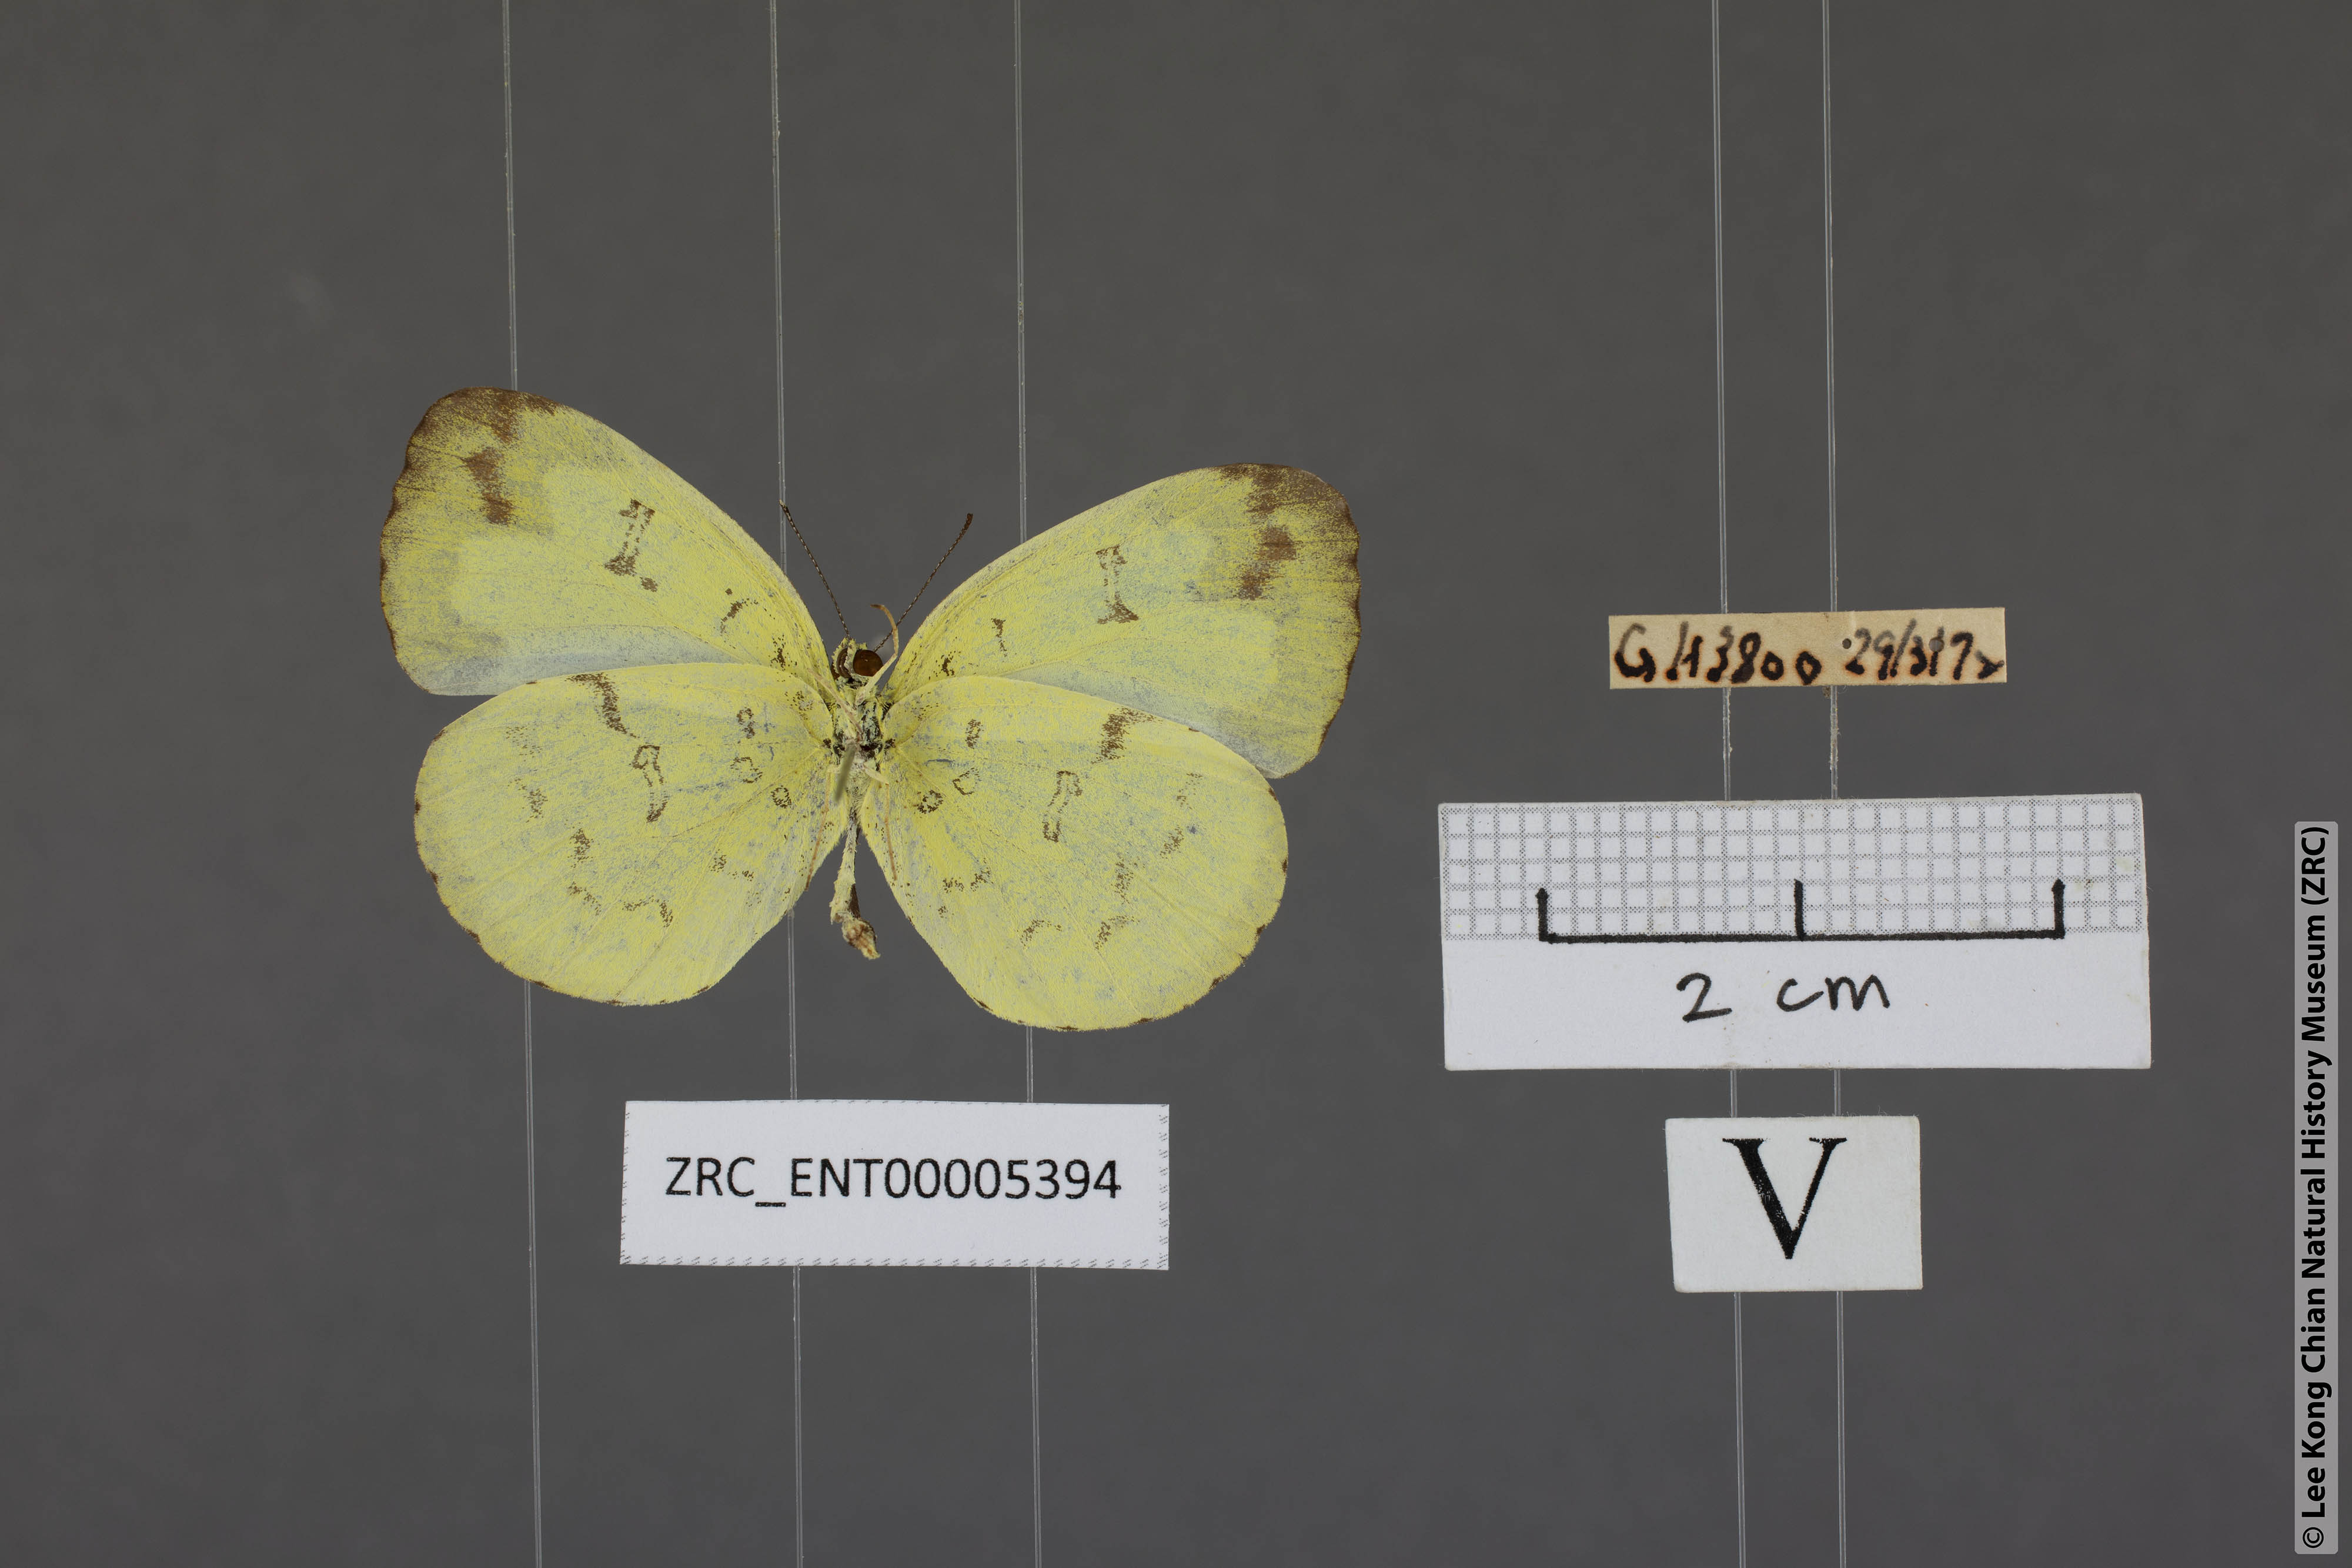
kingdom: Animalia
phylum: Arthropoda
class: Insecta
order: Lepidoptera
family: Pieridae
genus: Eurema
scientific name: Eurema ada
